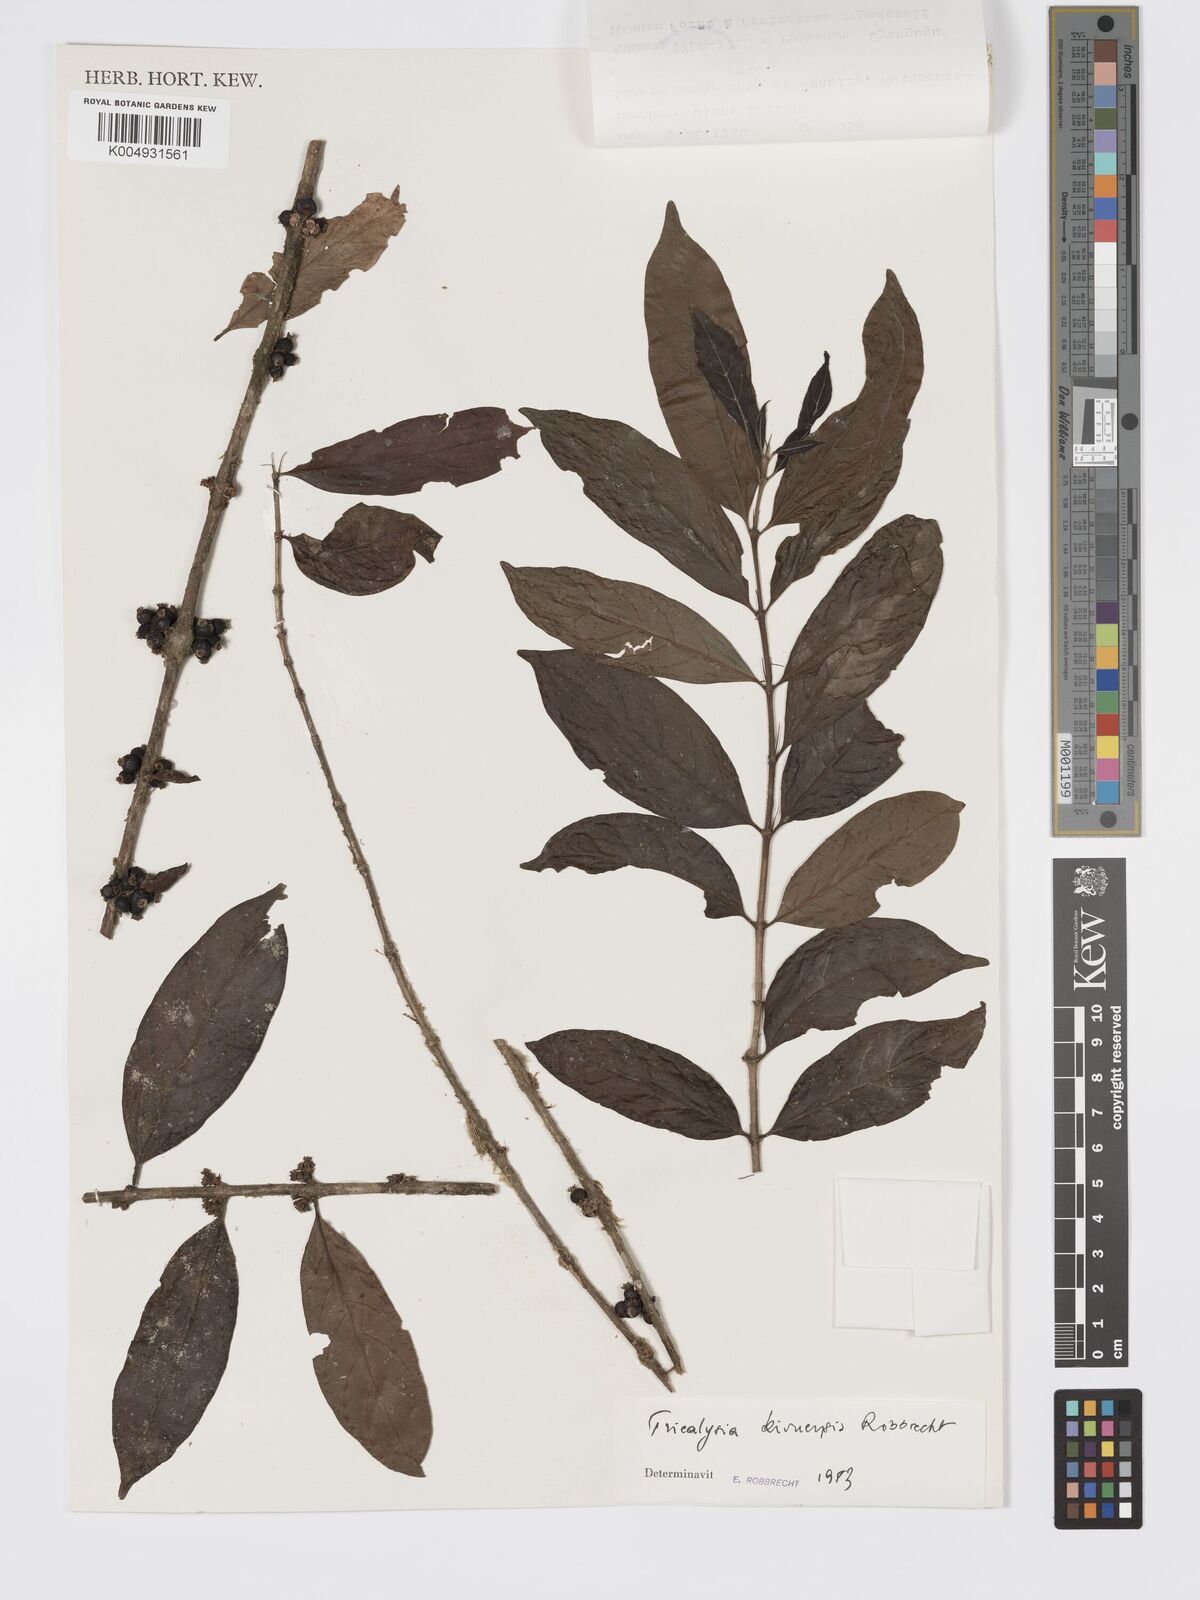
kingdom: Plantae
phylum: Tracheophyta
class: Magnoliopsida
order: Gentianales
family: Rubiaceae
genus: Tricalysia
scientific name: Tricalysia kivuensis
